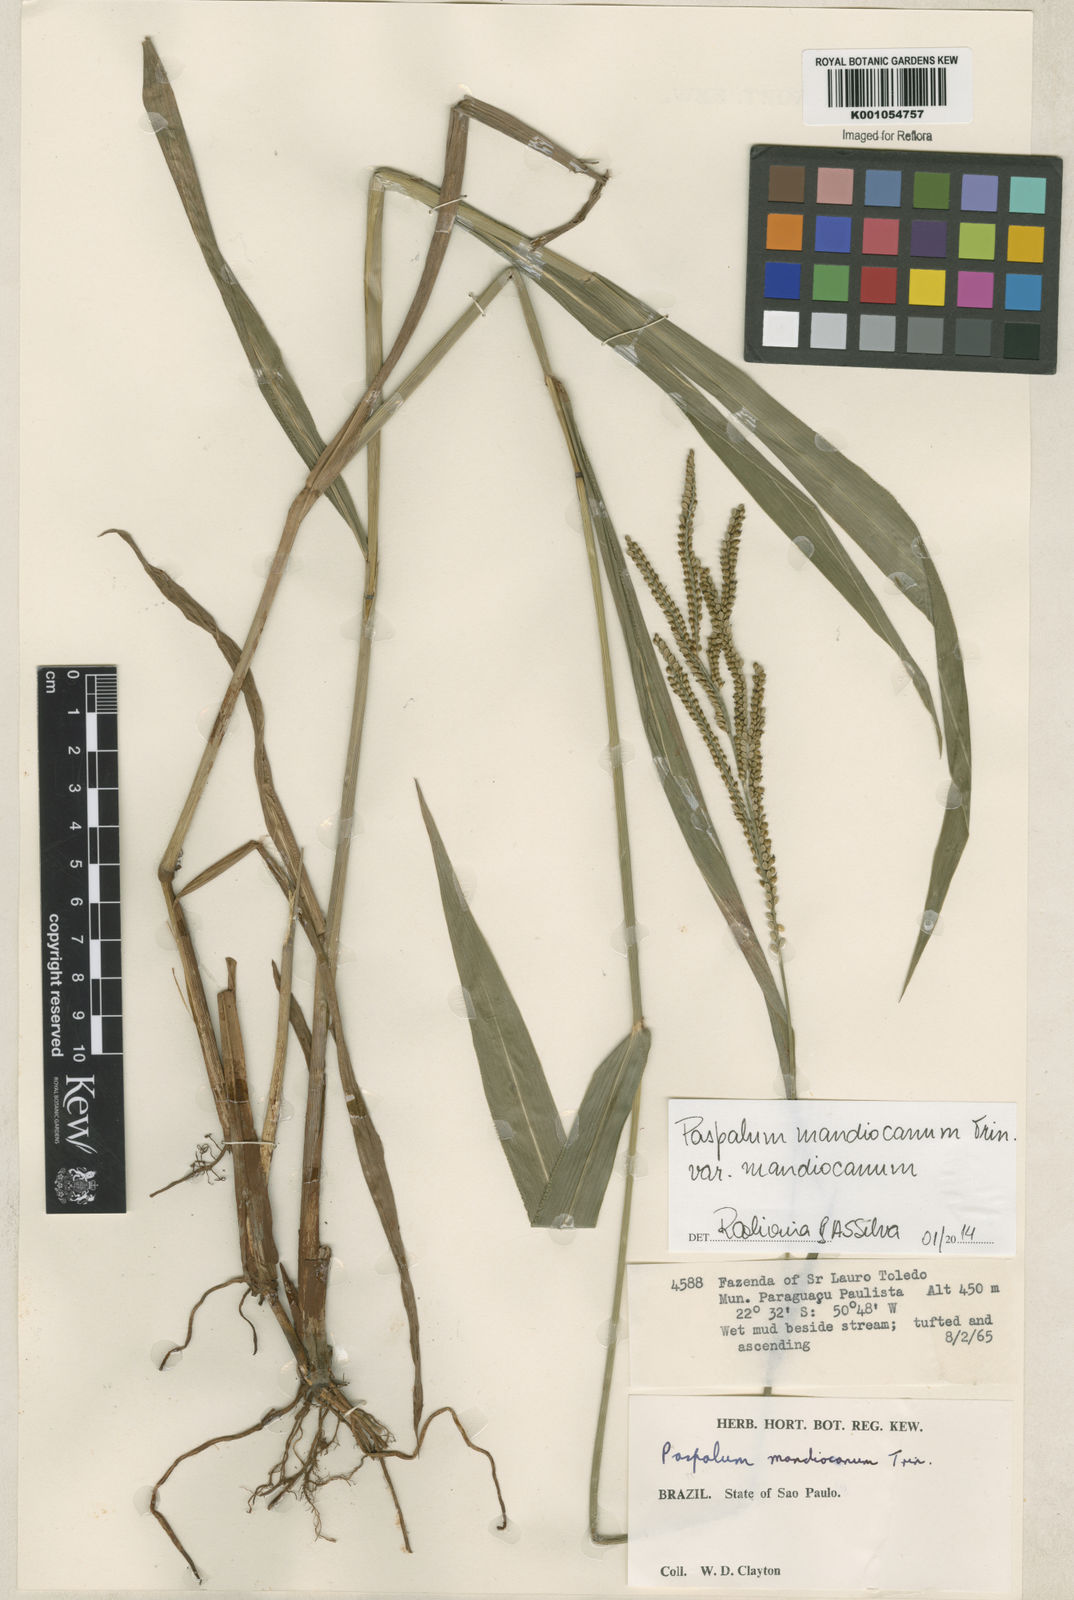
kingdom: Plantae
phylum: Tracheophyta
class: Liliopsida
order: Poales
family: Poaceae
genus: Paspalum
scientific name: Paspalum mandiocanum
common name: Paspalum
